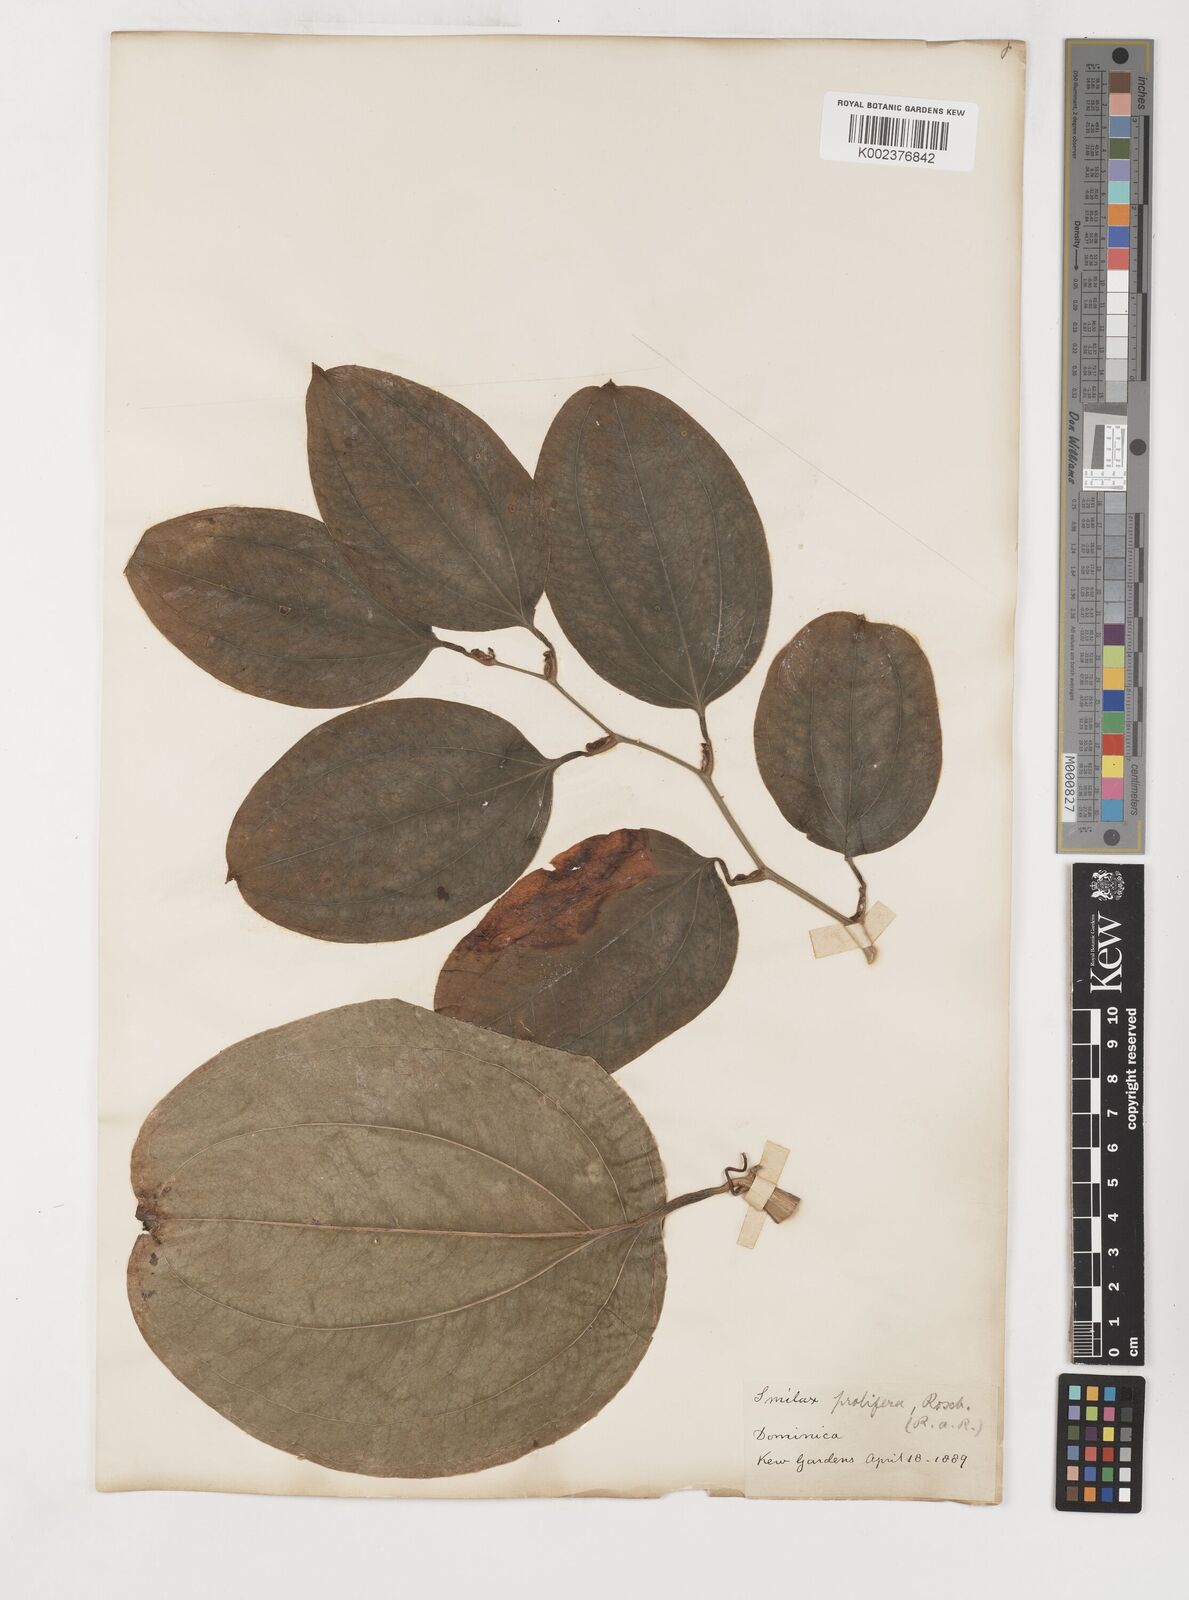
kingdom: Plantae
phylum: Tracheophyta
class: Liliopsida
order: Liliales
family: Smilacaceae
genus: Smilax
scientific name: Smilax prolifera
